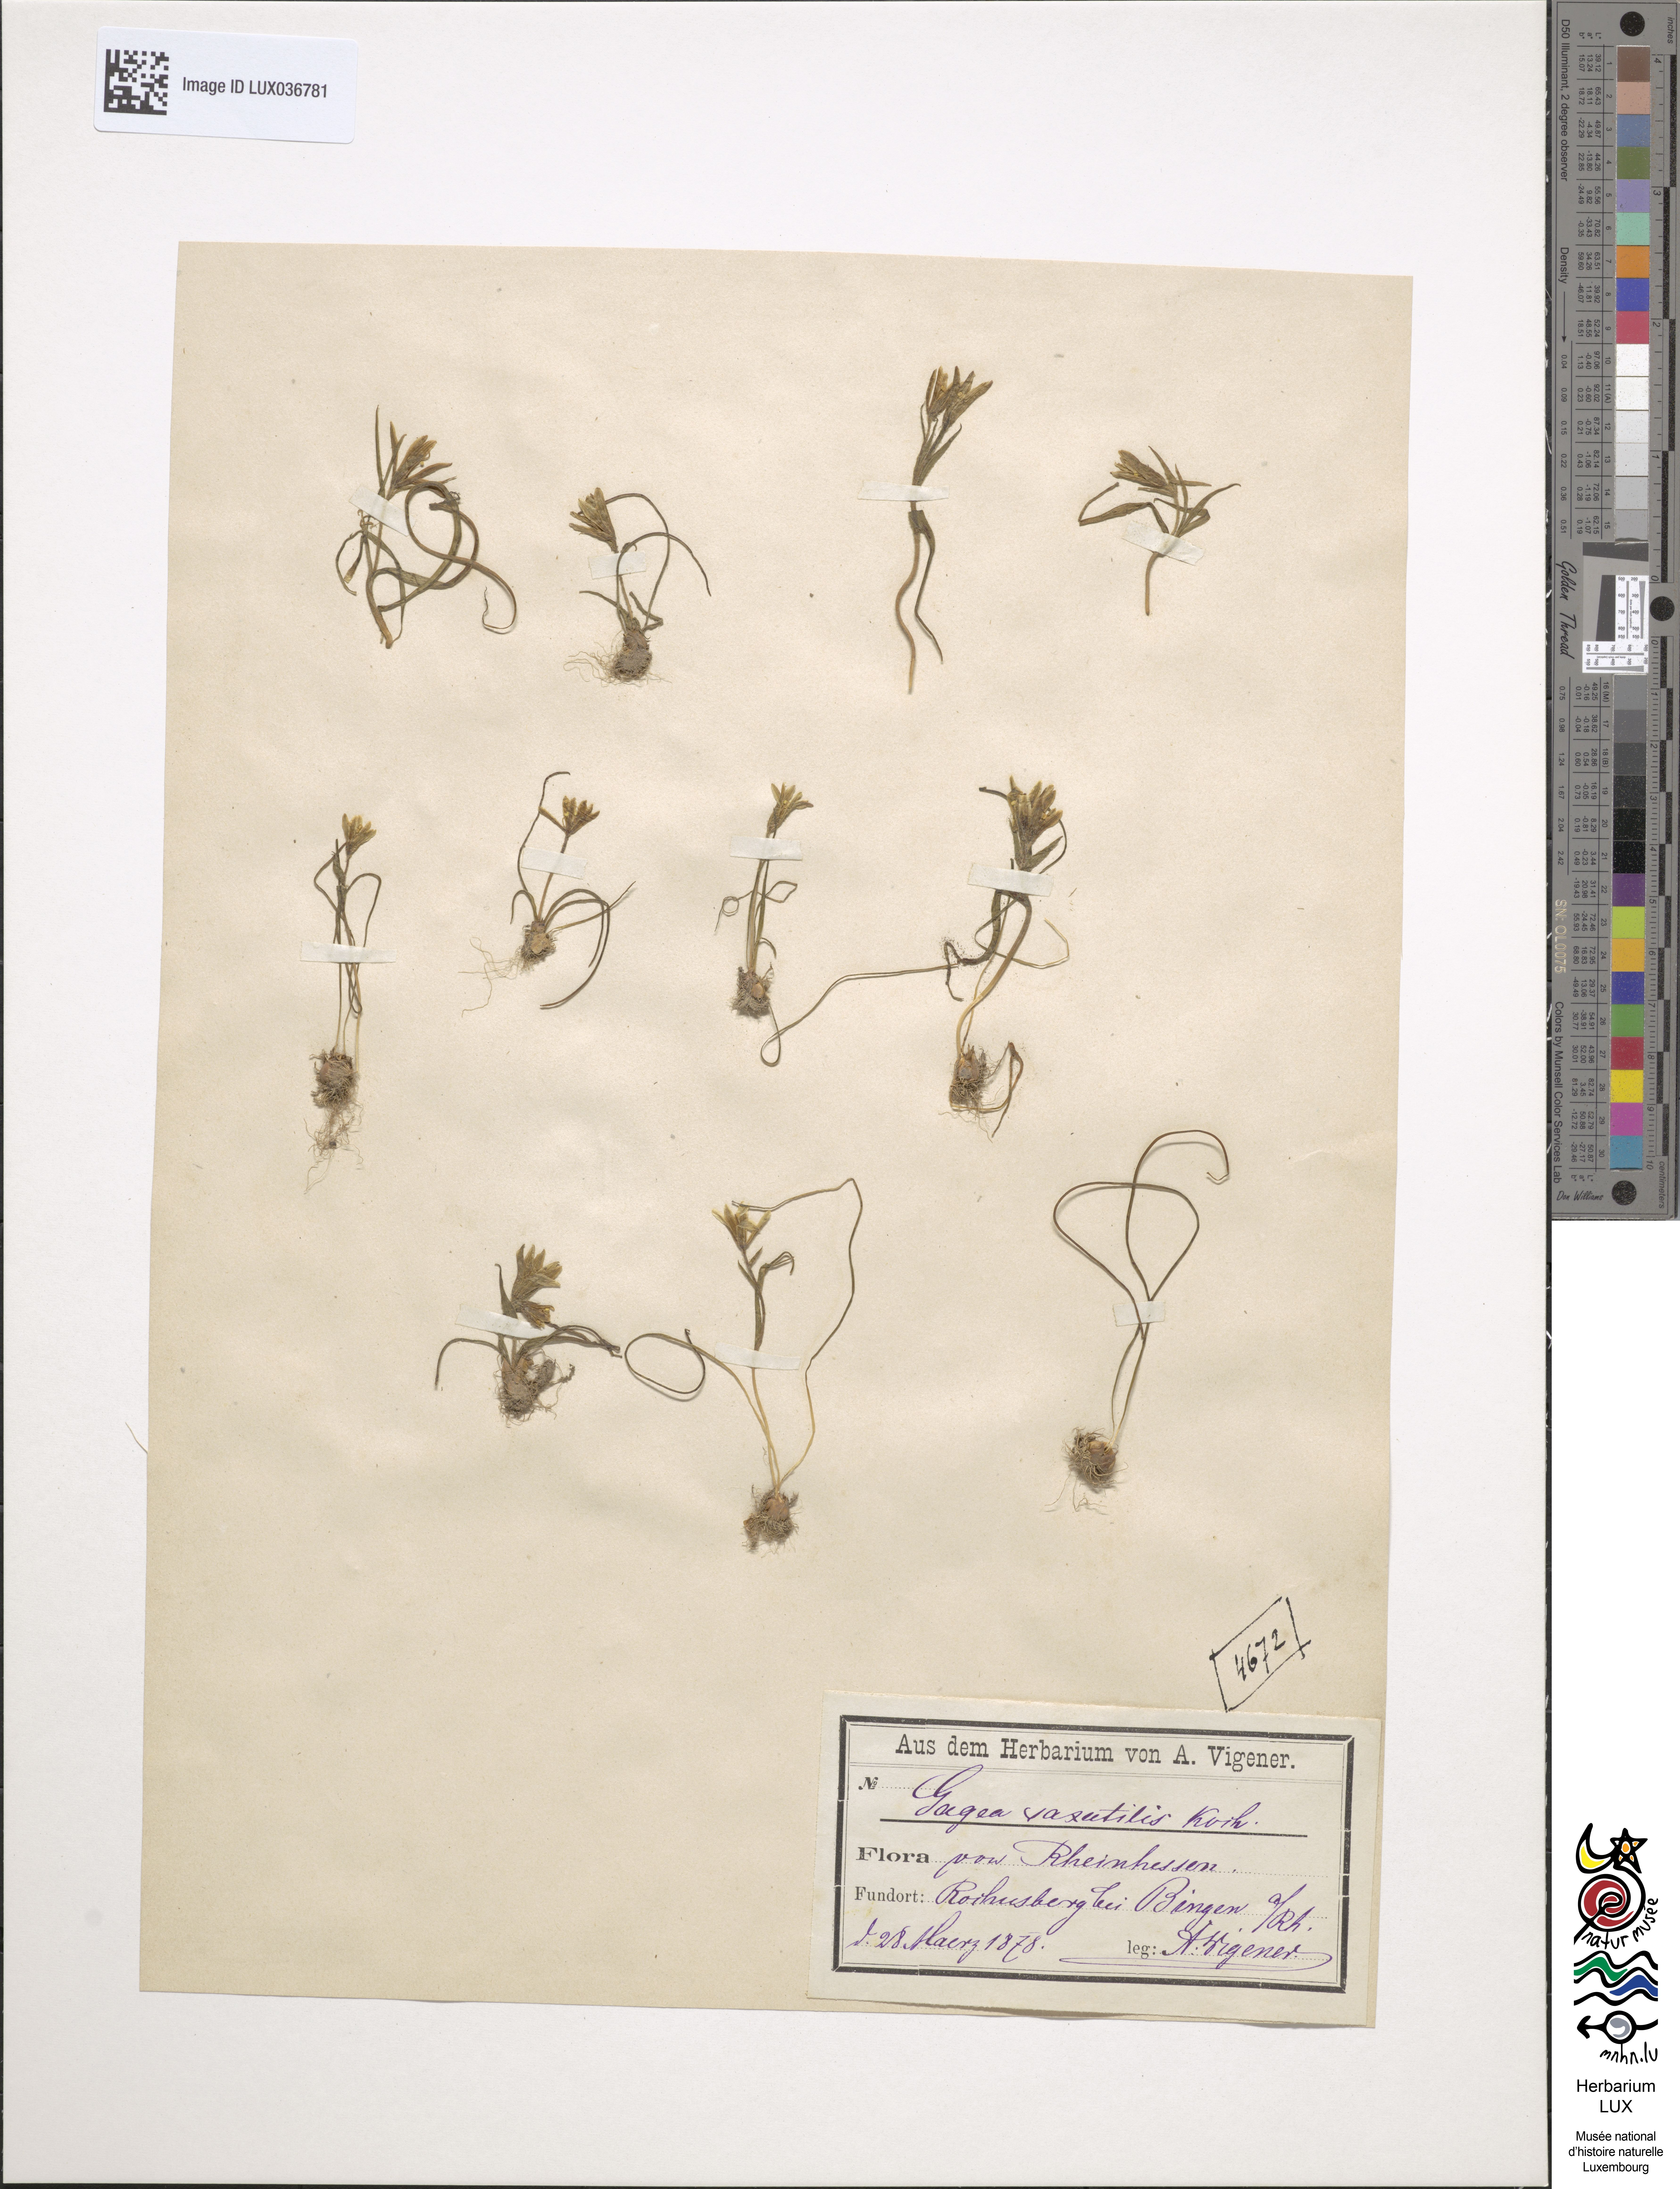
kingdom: Plantae
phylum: Tracheophyta
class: Liliopsida
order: Liliales
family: Liliaceae
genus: Gagea
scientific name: Gagea bohemica
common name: Early star-of-bethlehem
